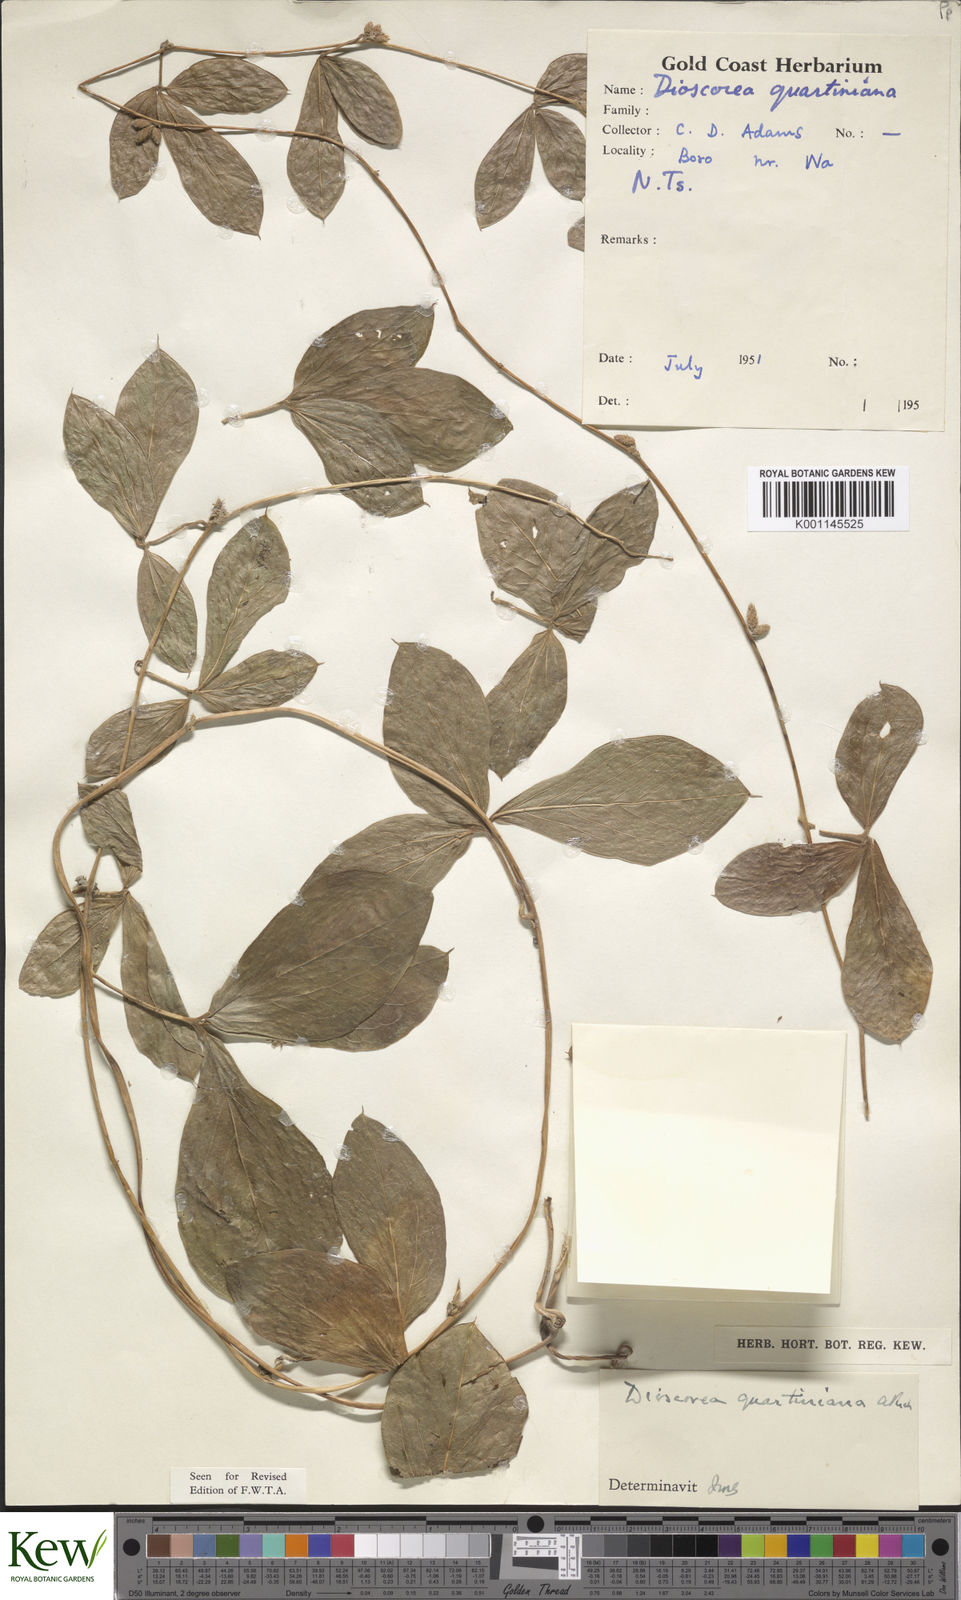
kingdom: Plantae
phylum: Tracheophyta
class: Liliopsida
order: Dioscoreales
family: Dioscoreaceae
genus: Dioscorea
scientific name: Dioscorea quartiniana
